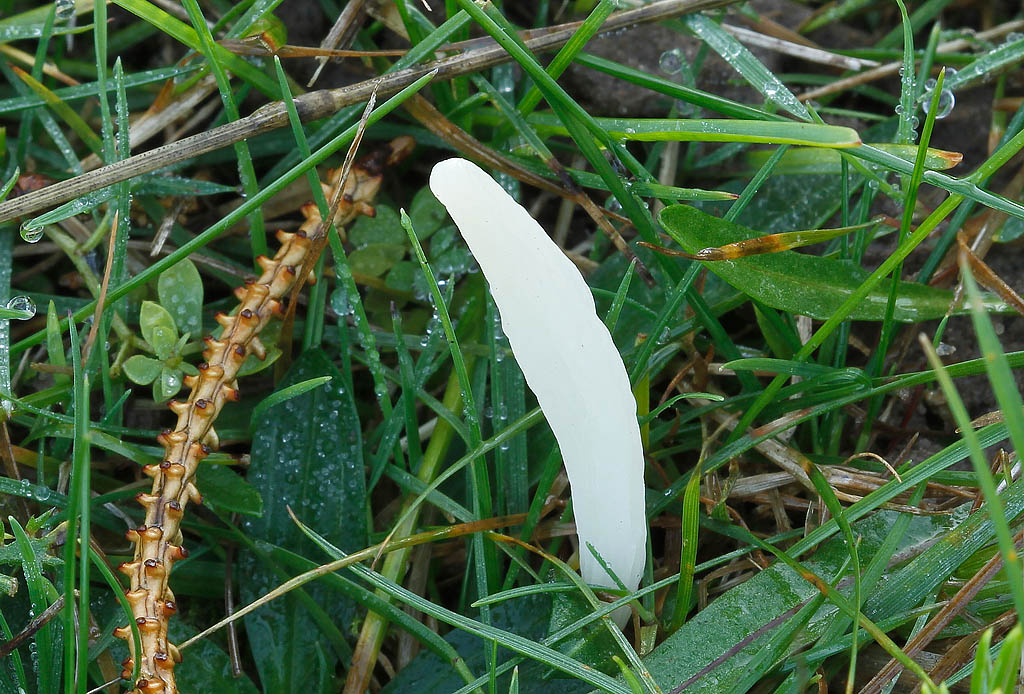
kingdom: Fungi
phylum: Basidiomycota
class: Agaricomycetes
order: Agaricales
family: Clavariaceae
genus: Clavaria
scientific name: Clavaria falcata
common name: hvid køllesvamp
